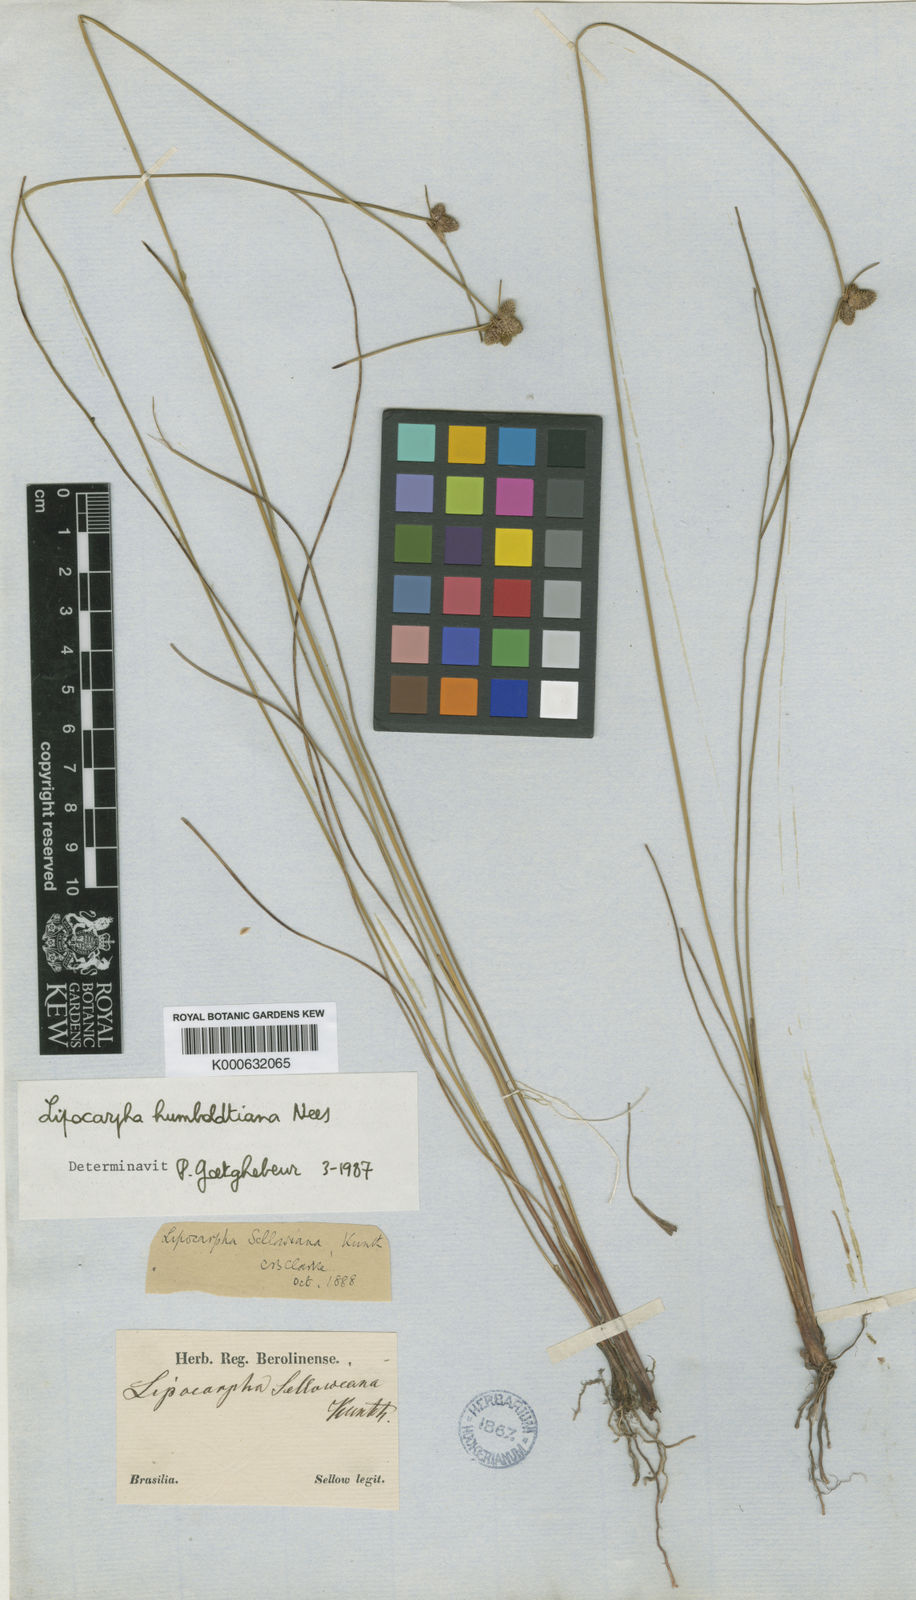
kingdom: Plantae
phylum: Tracheophyta
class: Liliopsida
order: Poales
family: Cyperaceae
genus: Cyperus
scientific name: Cyperus sellowianus
